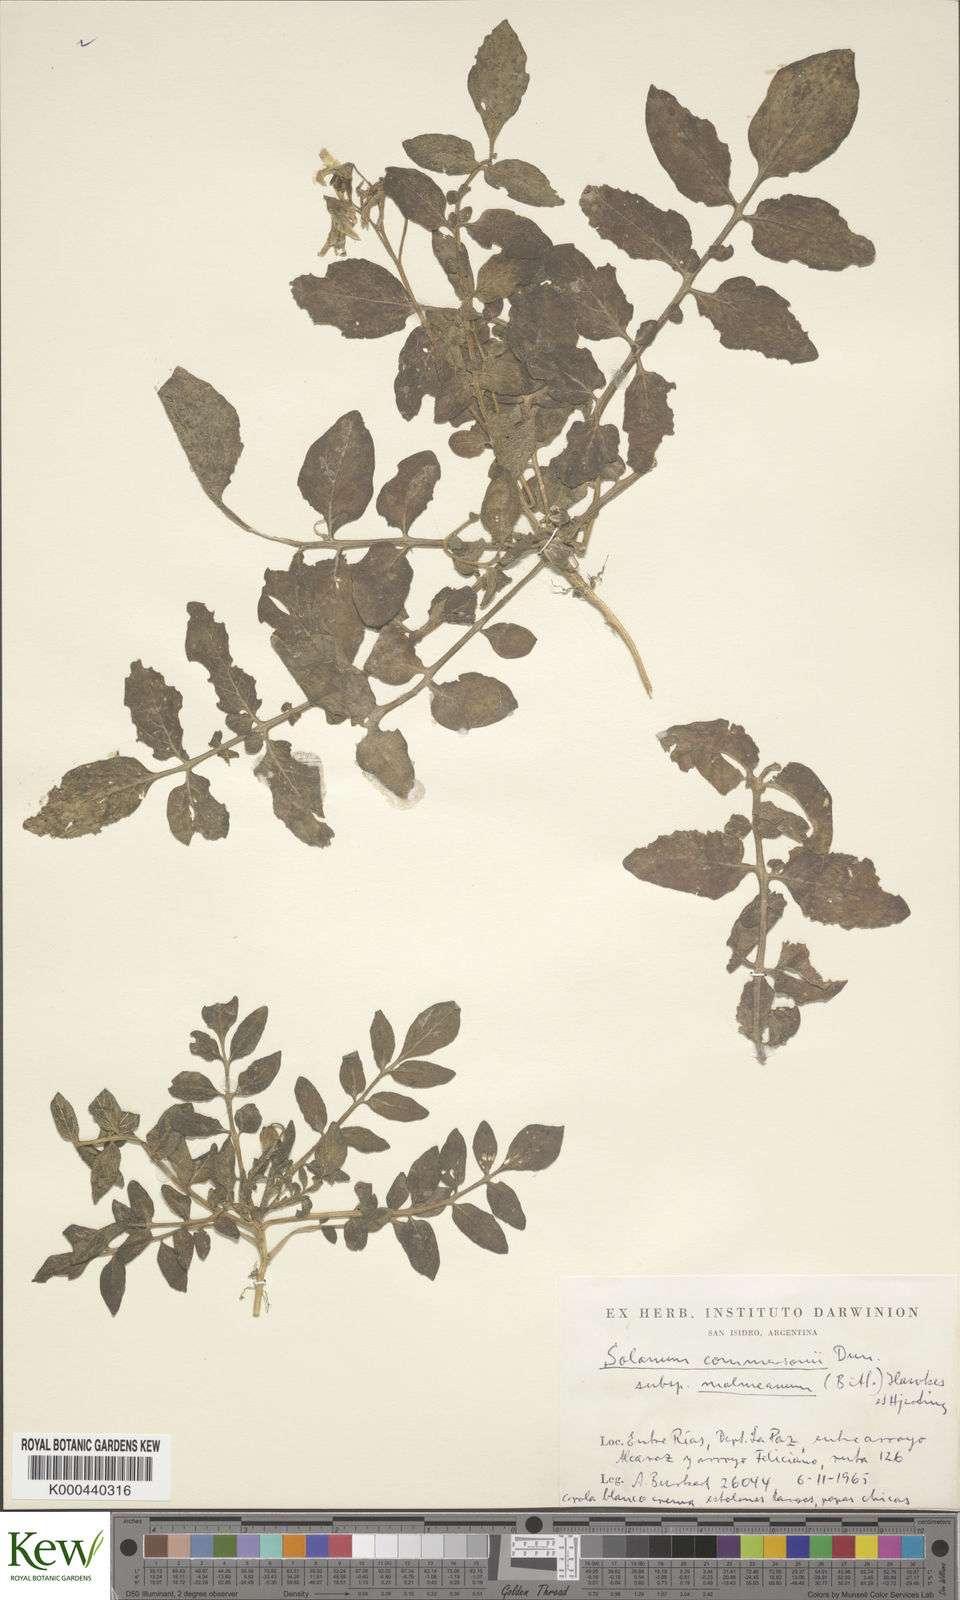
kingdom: Plantae
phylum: Tracheophyta
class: Magnoliopsida
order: Solanales
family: Solanaceae
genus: Solanum
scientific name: Solanum malmeanum
